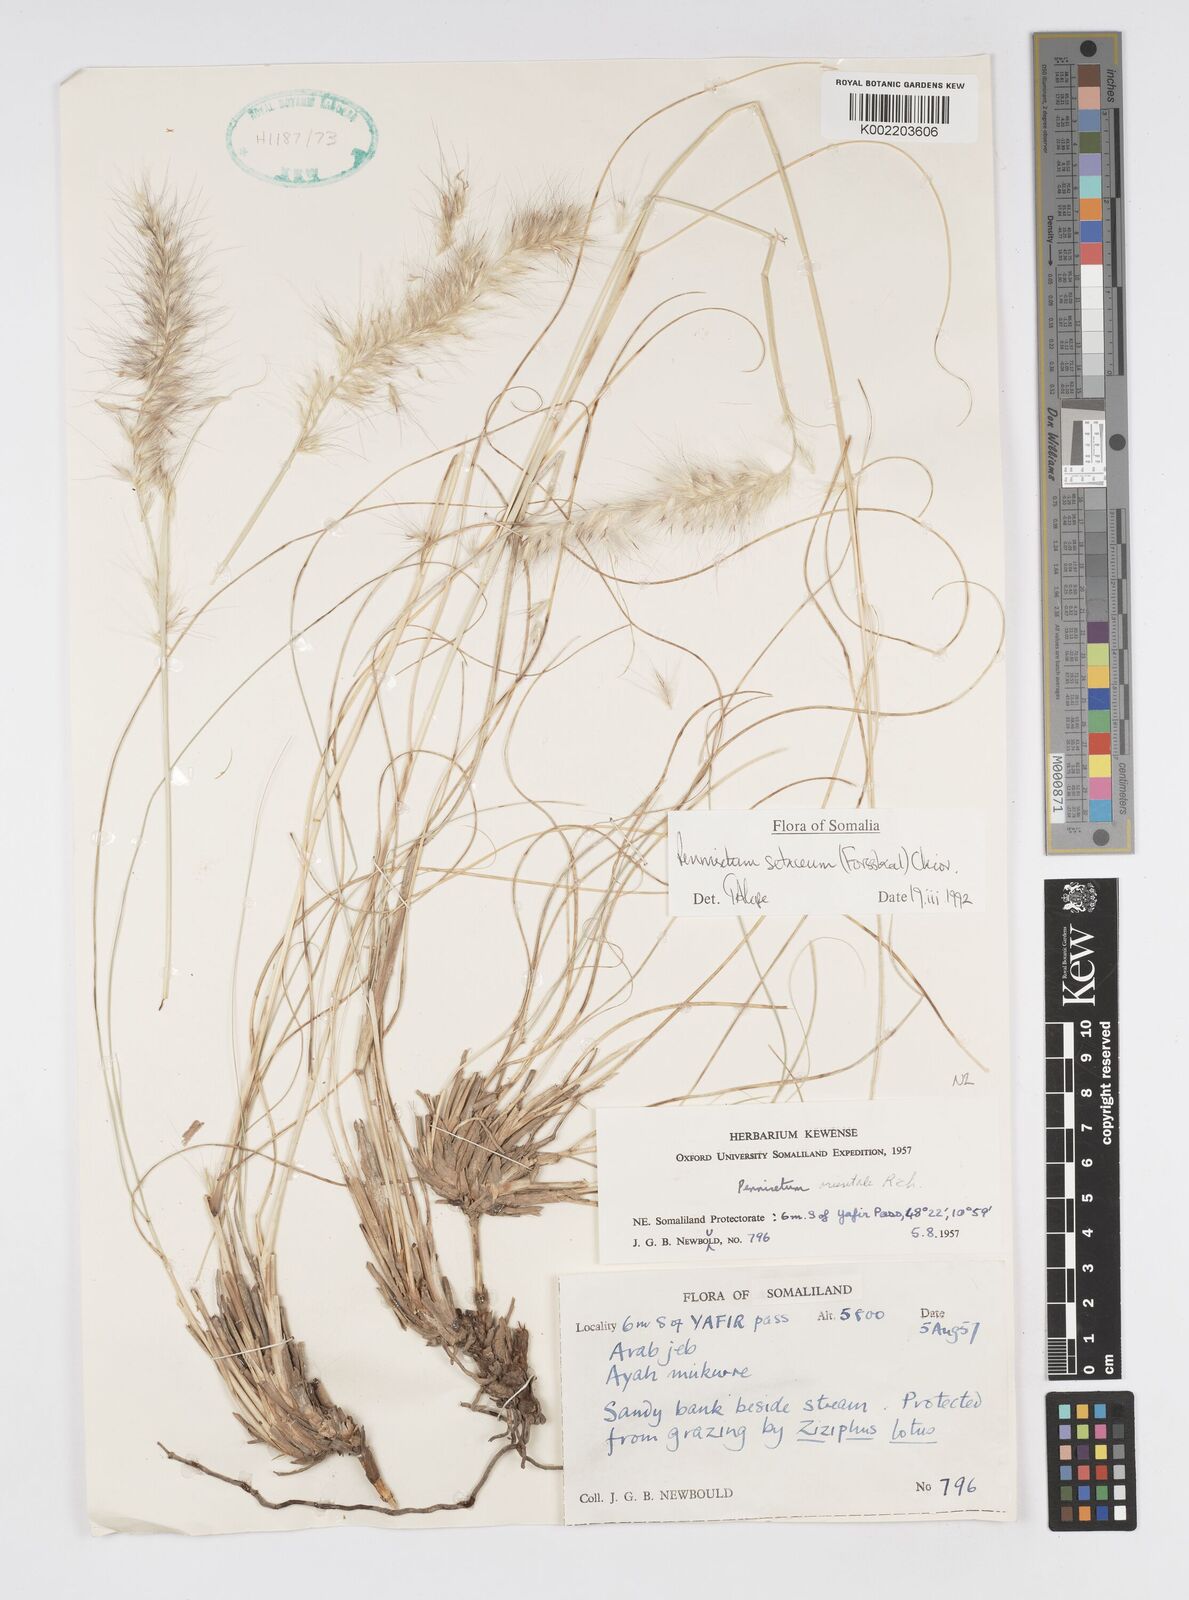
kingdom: Plantae
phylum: Tracheophyta
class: Liliopsida
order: Poales
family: Poaceae
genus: Cenchrus
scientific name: Cenchrus setaceus
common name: Crimson fountaingrass
